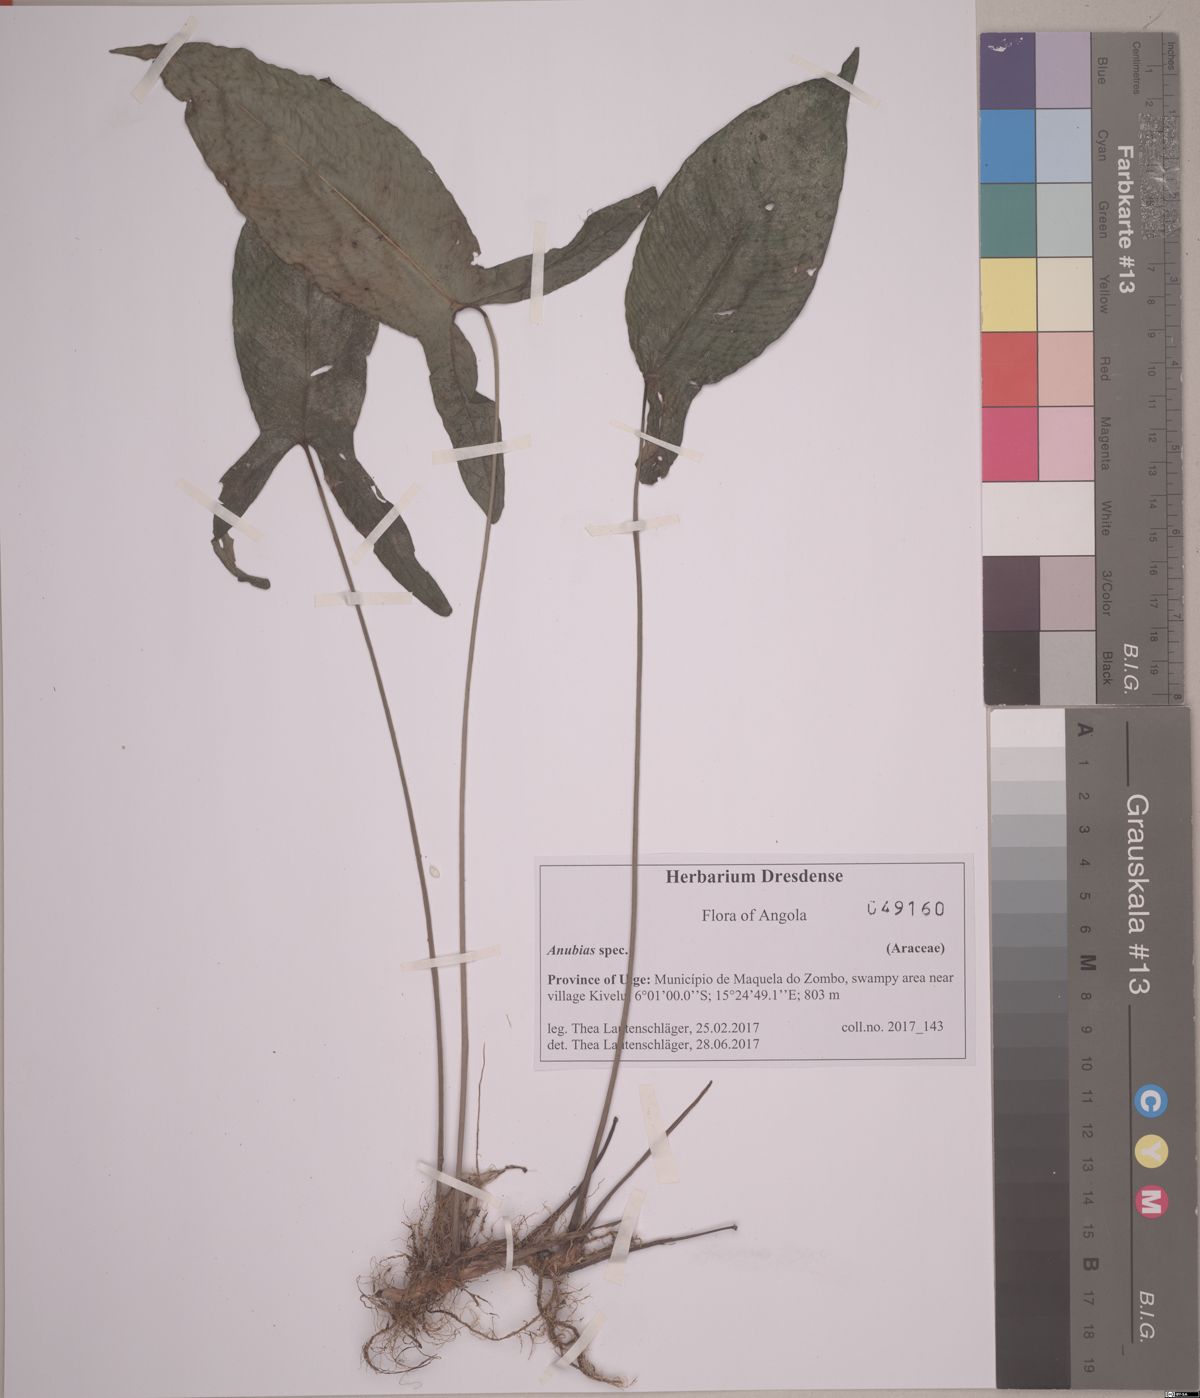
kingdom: Plantae
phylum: Tracheophyta
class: Liliopsida
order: Alismatales
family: Araceae
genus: Anubias
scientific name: Anubias gilletii
